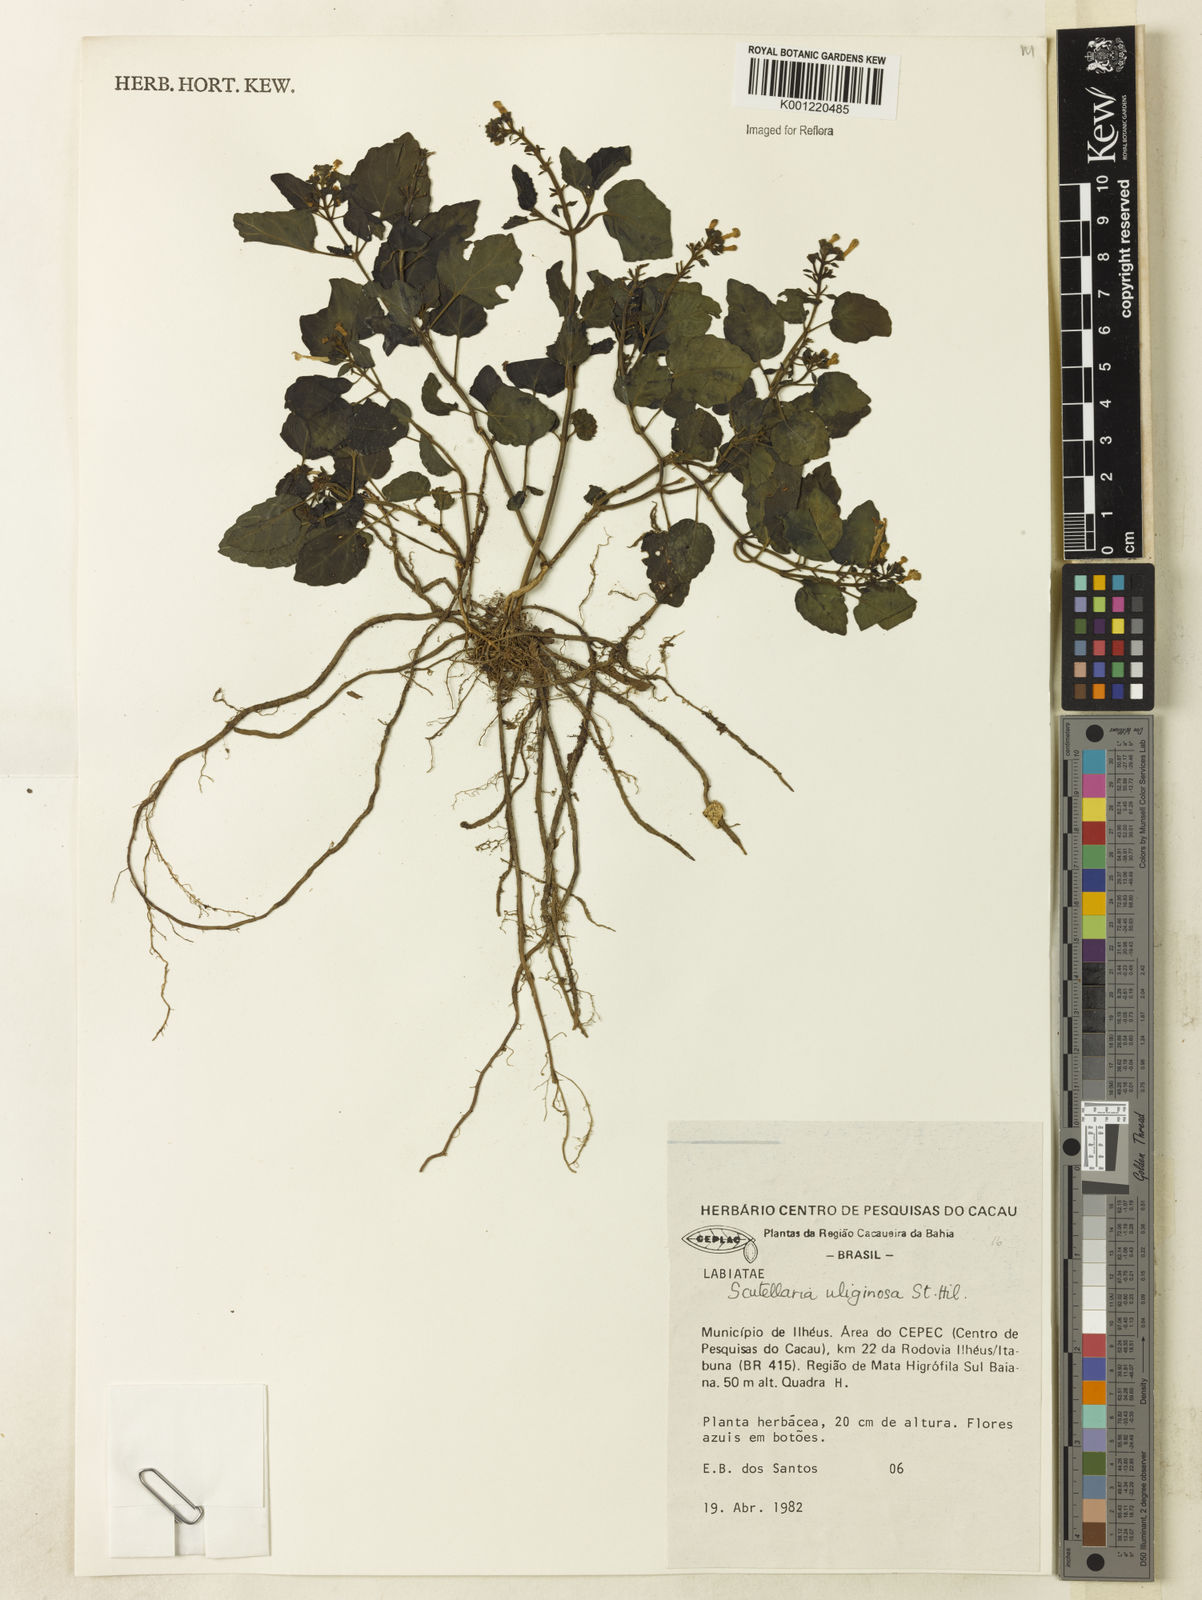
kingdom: Plantae
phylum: Tracheophyta
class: Magnoliopsida
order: Lamiales
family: Lamiaceae
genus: Scutellaria
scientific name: Scutellaria uliginosa
